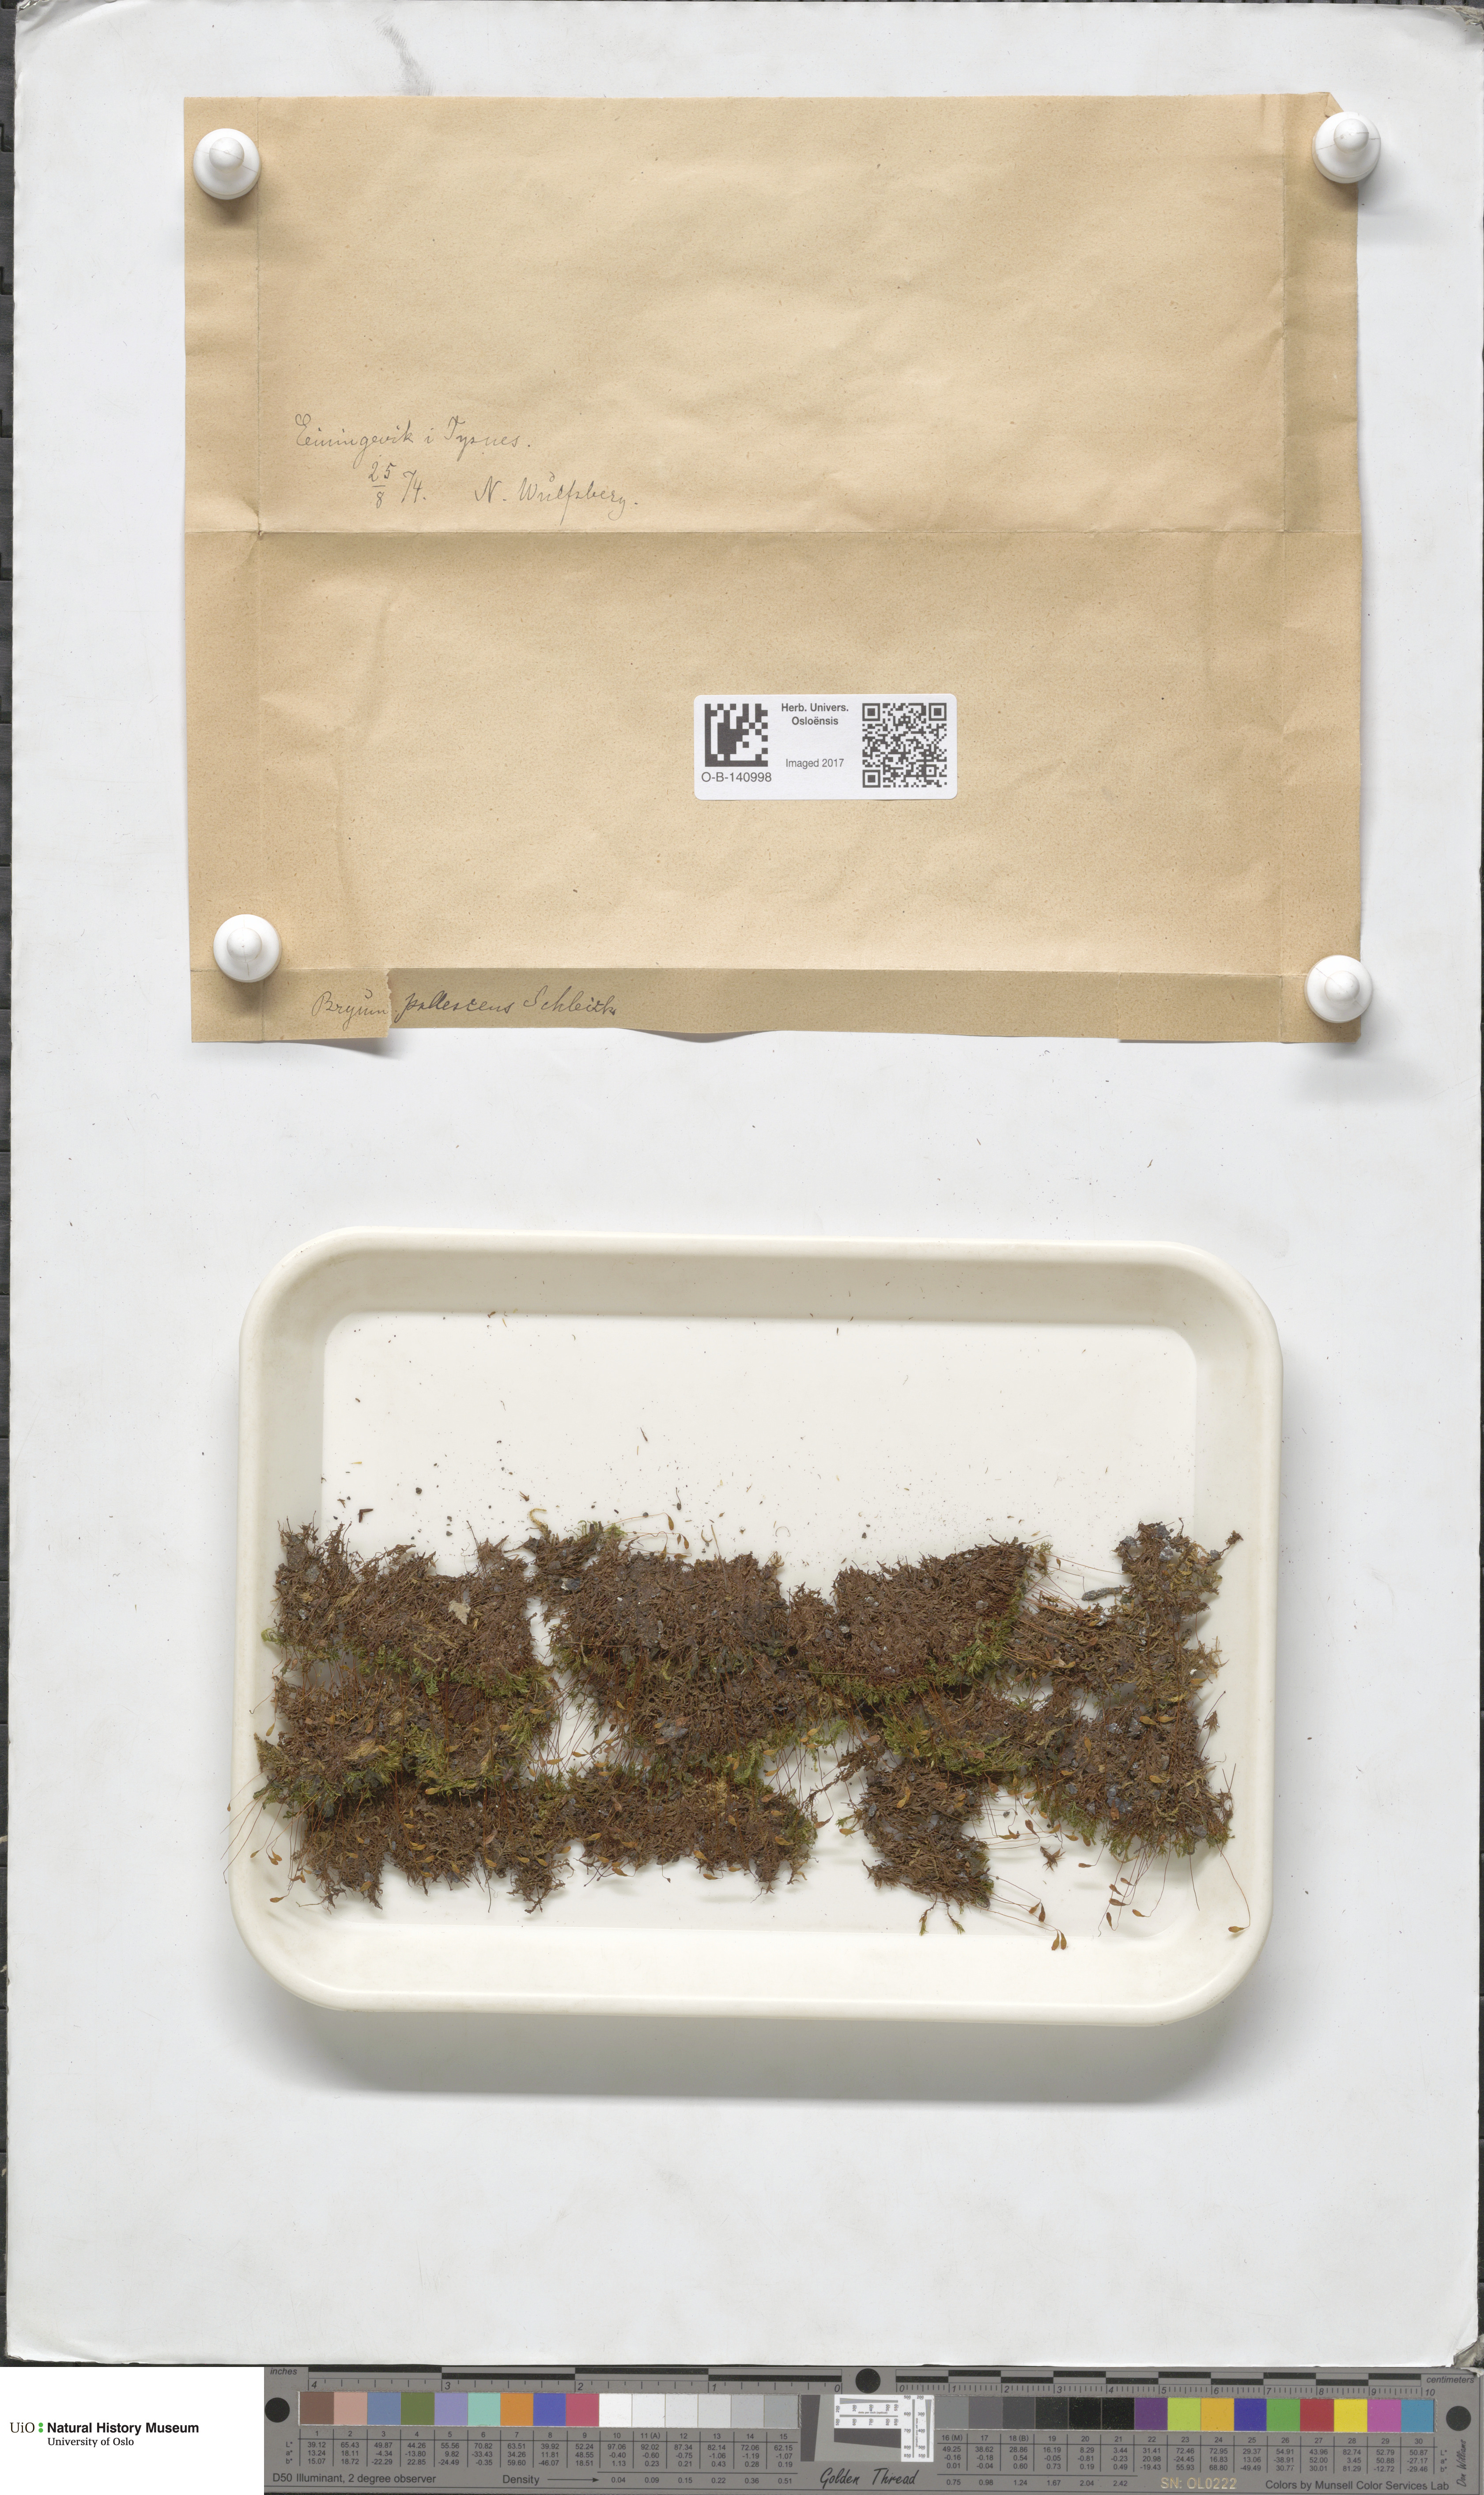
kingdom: Plantae
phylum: Bryophyta
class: Bryopsida
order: Bryales
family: Bryaceae
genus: Ptychostomum
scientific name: Ptychostomum pallescens
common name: Tall-clustered thread-moss
